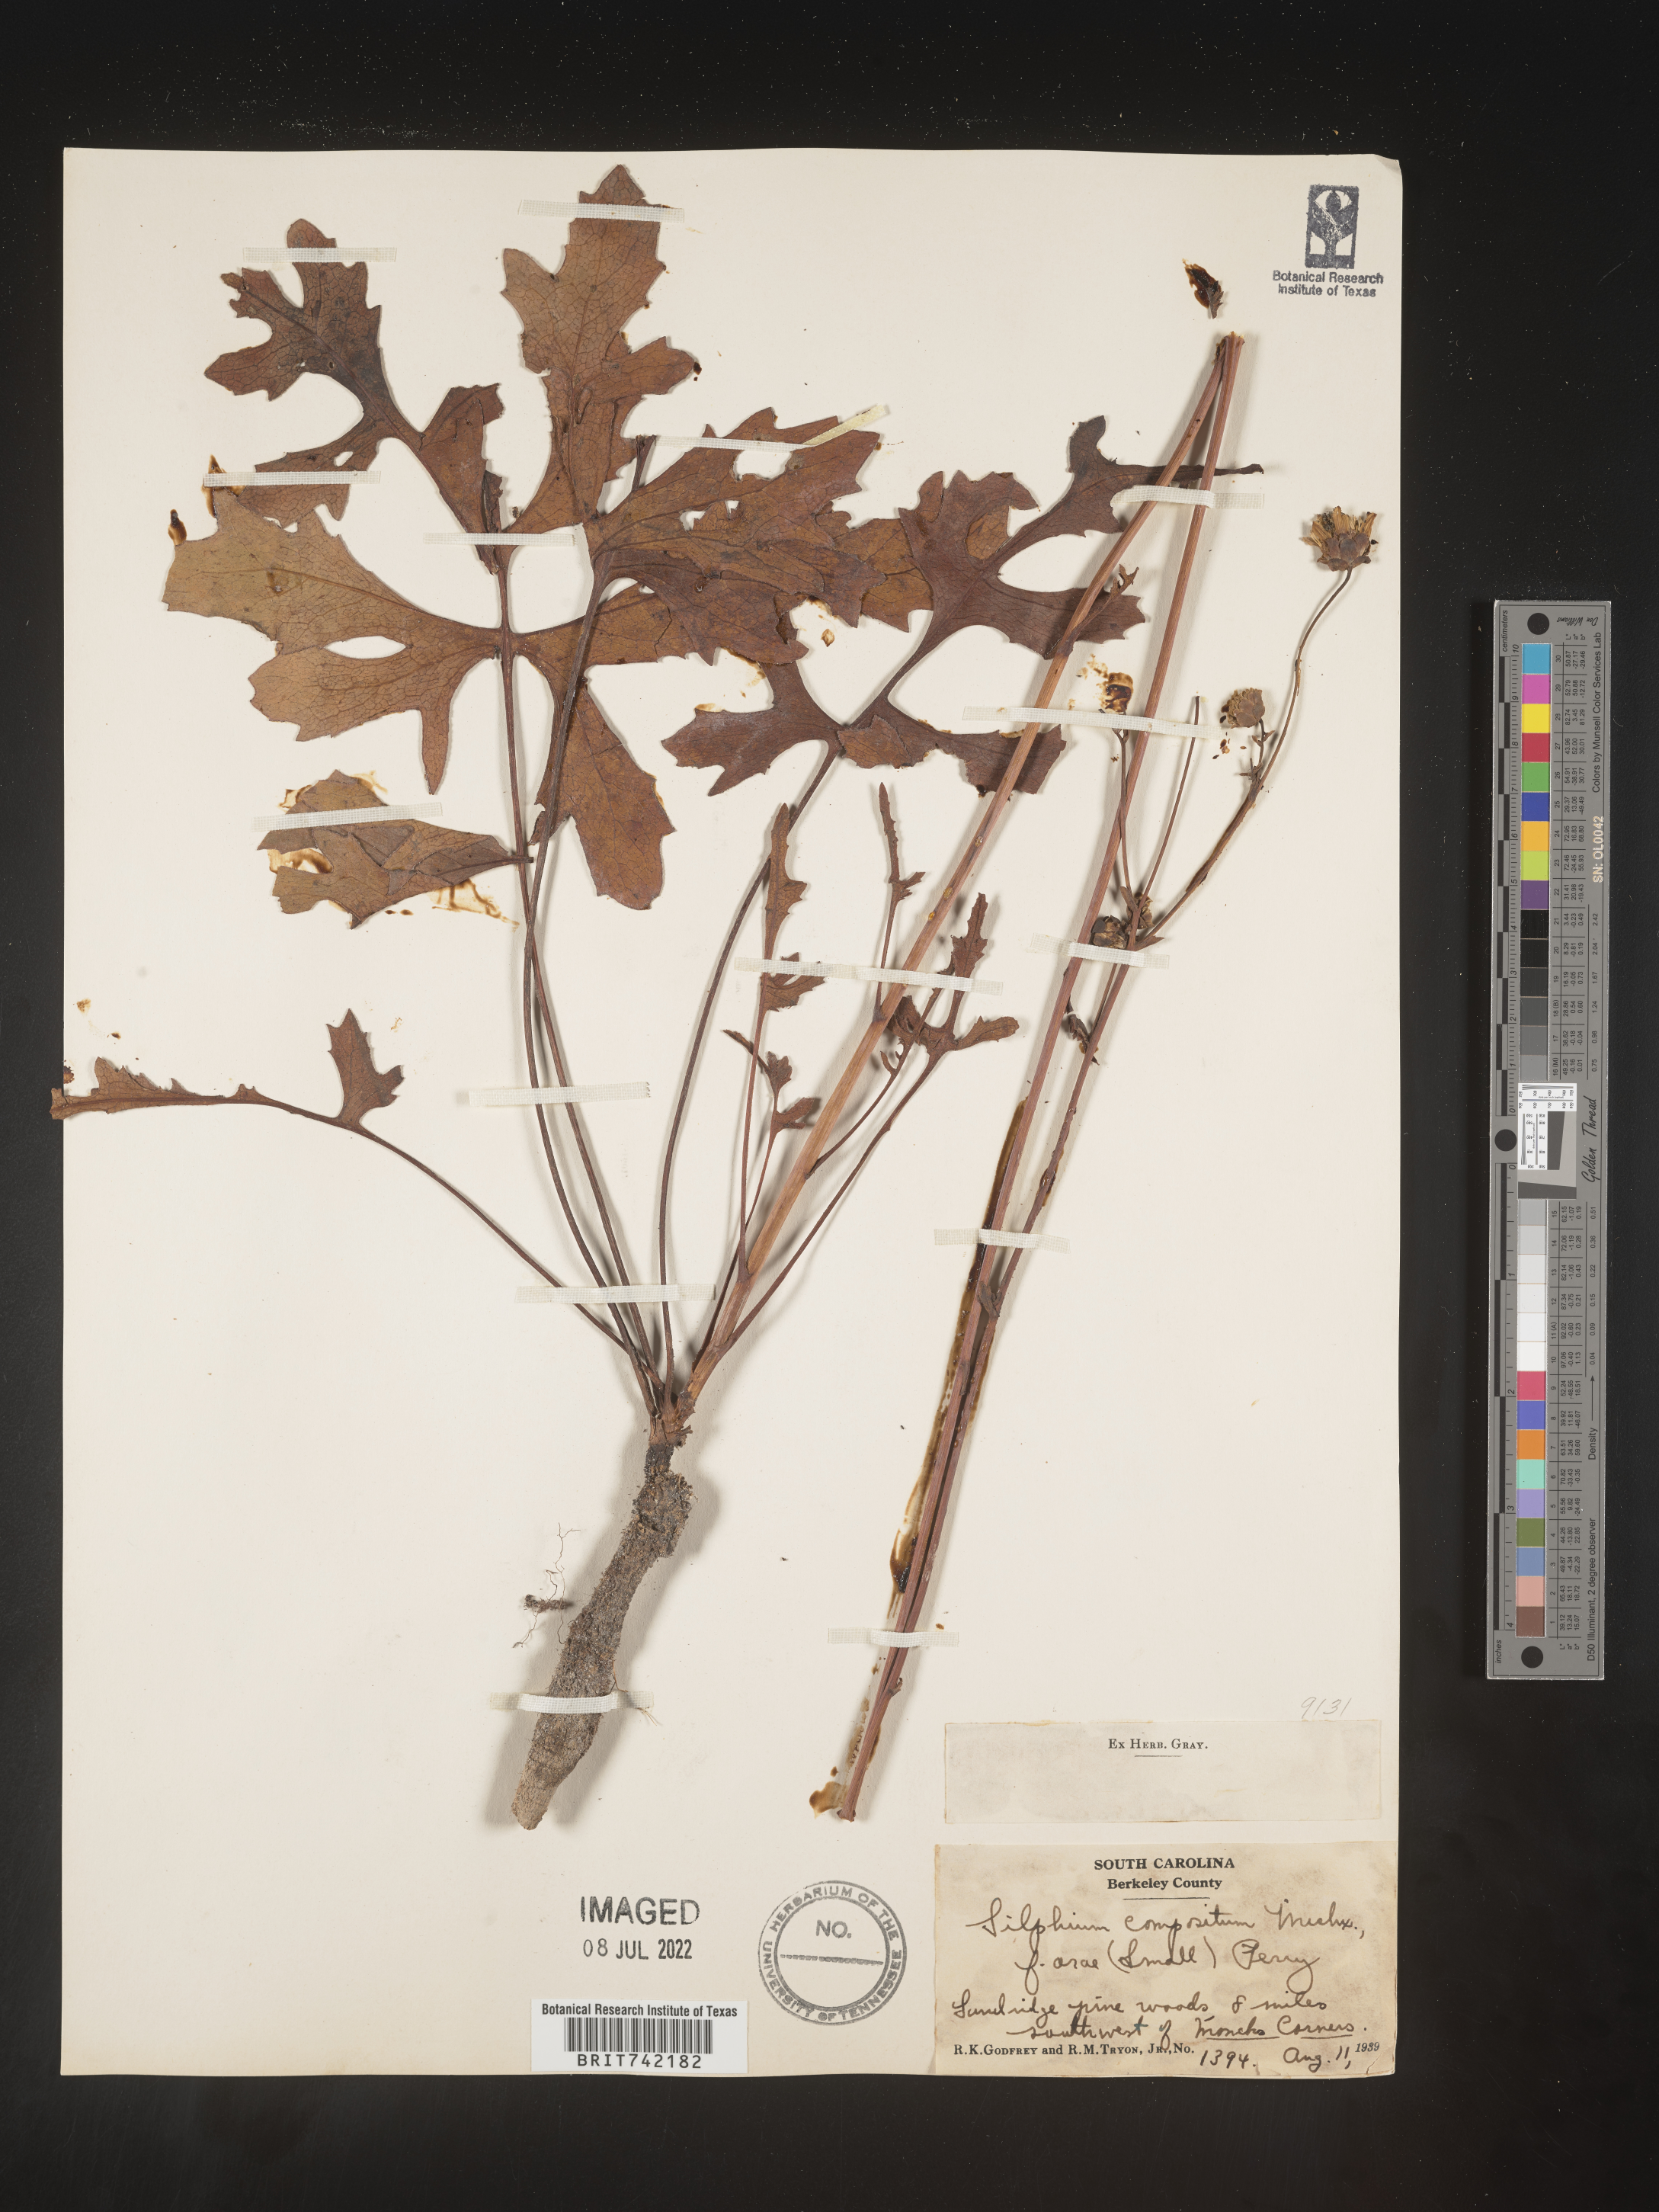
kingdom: Plantae
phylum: Tracheophyta
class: Magnoliopsida
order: Asterales
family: Asteraceae
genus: Silphium
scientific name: Silphium compositum
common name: Lesser basal-leaf rosinweed
